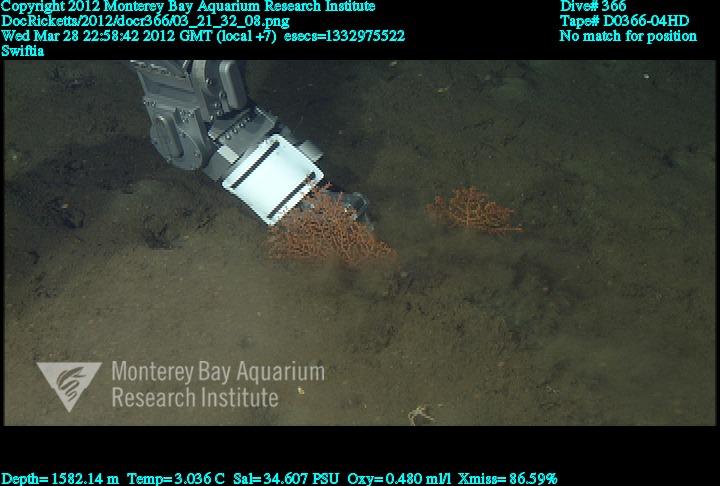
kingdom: Animalia
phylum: Cnidaria
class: Anthozoa
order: Malacalcyonacea
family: Plexauridae
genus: Swiftia
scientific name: Swiftia
